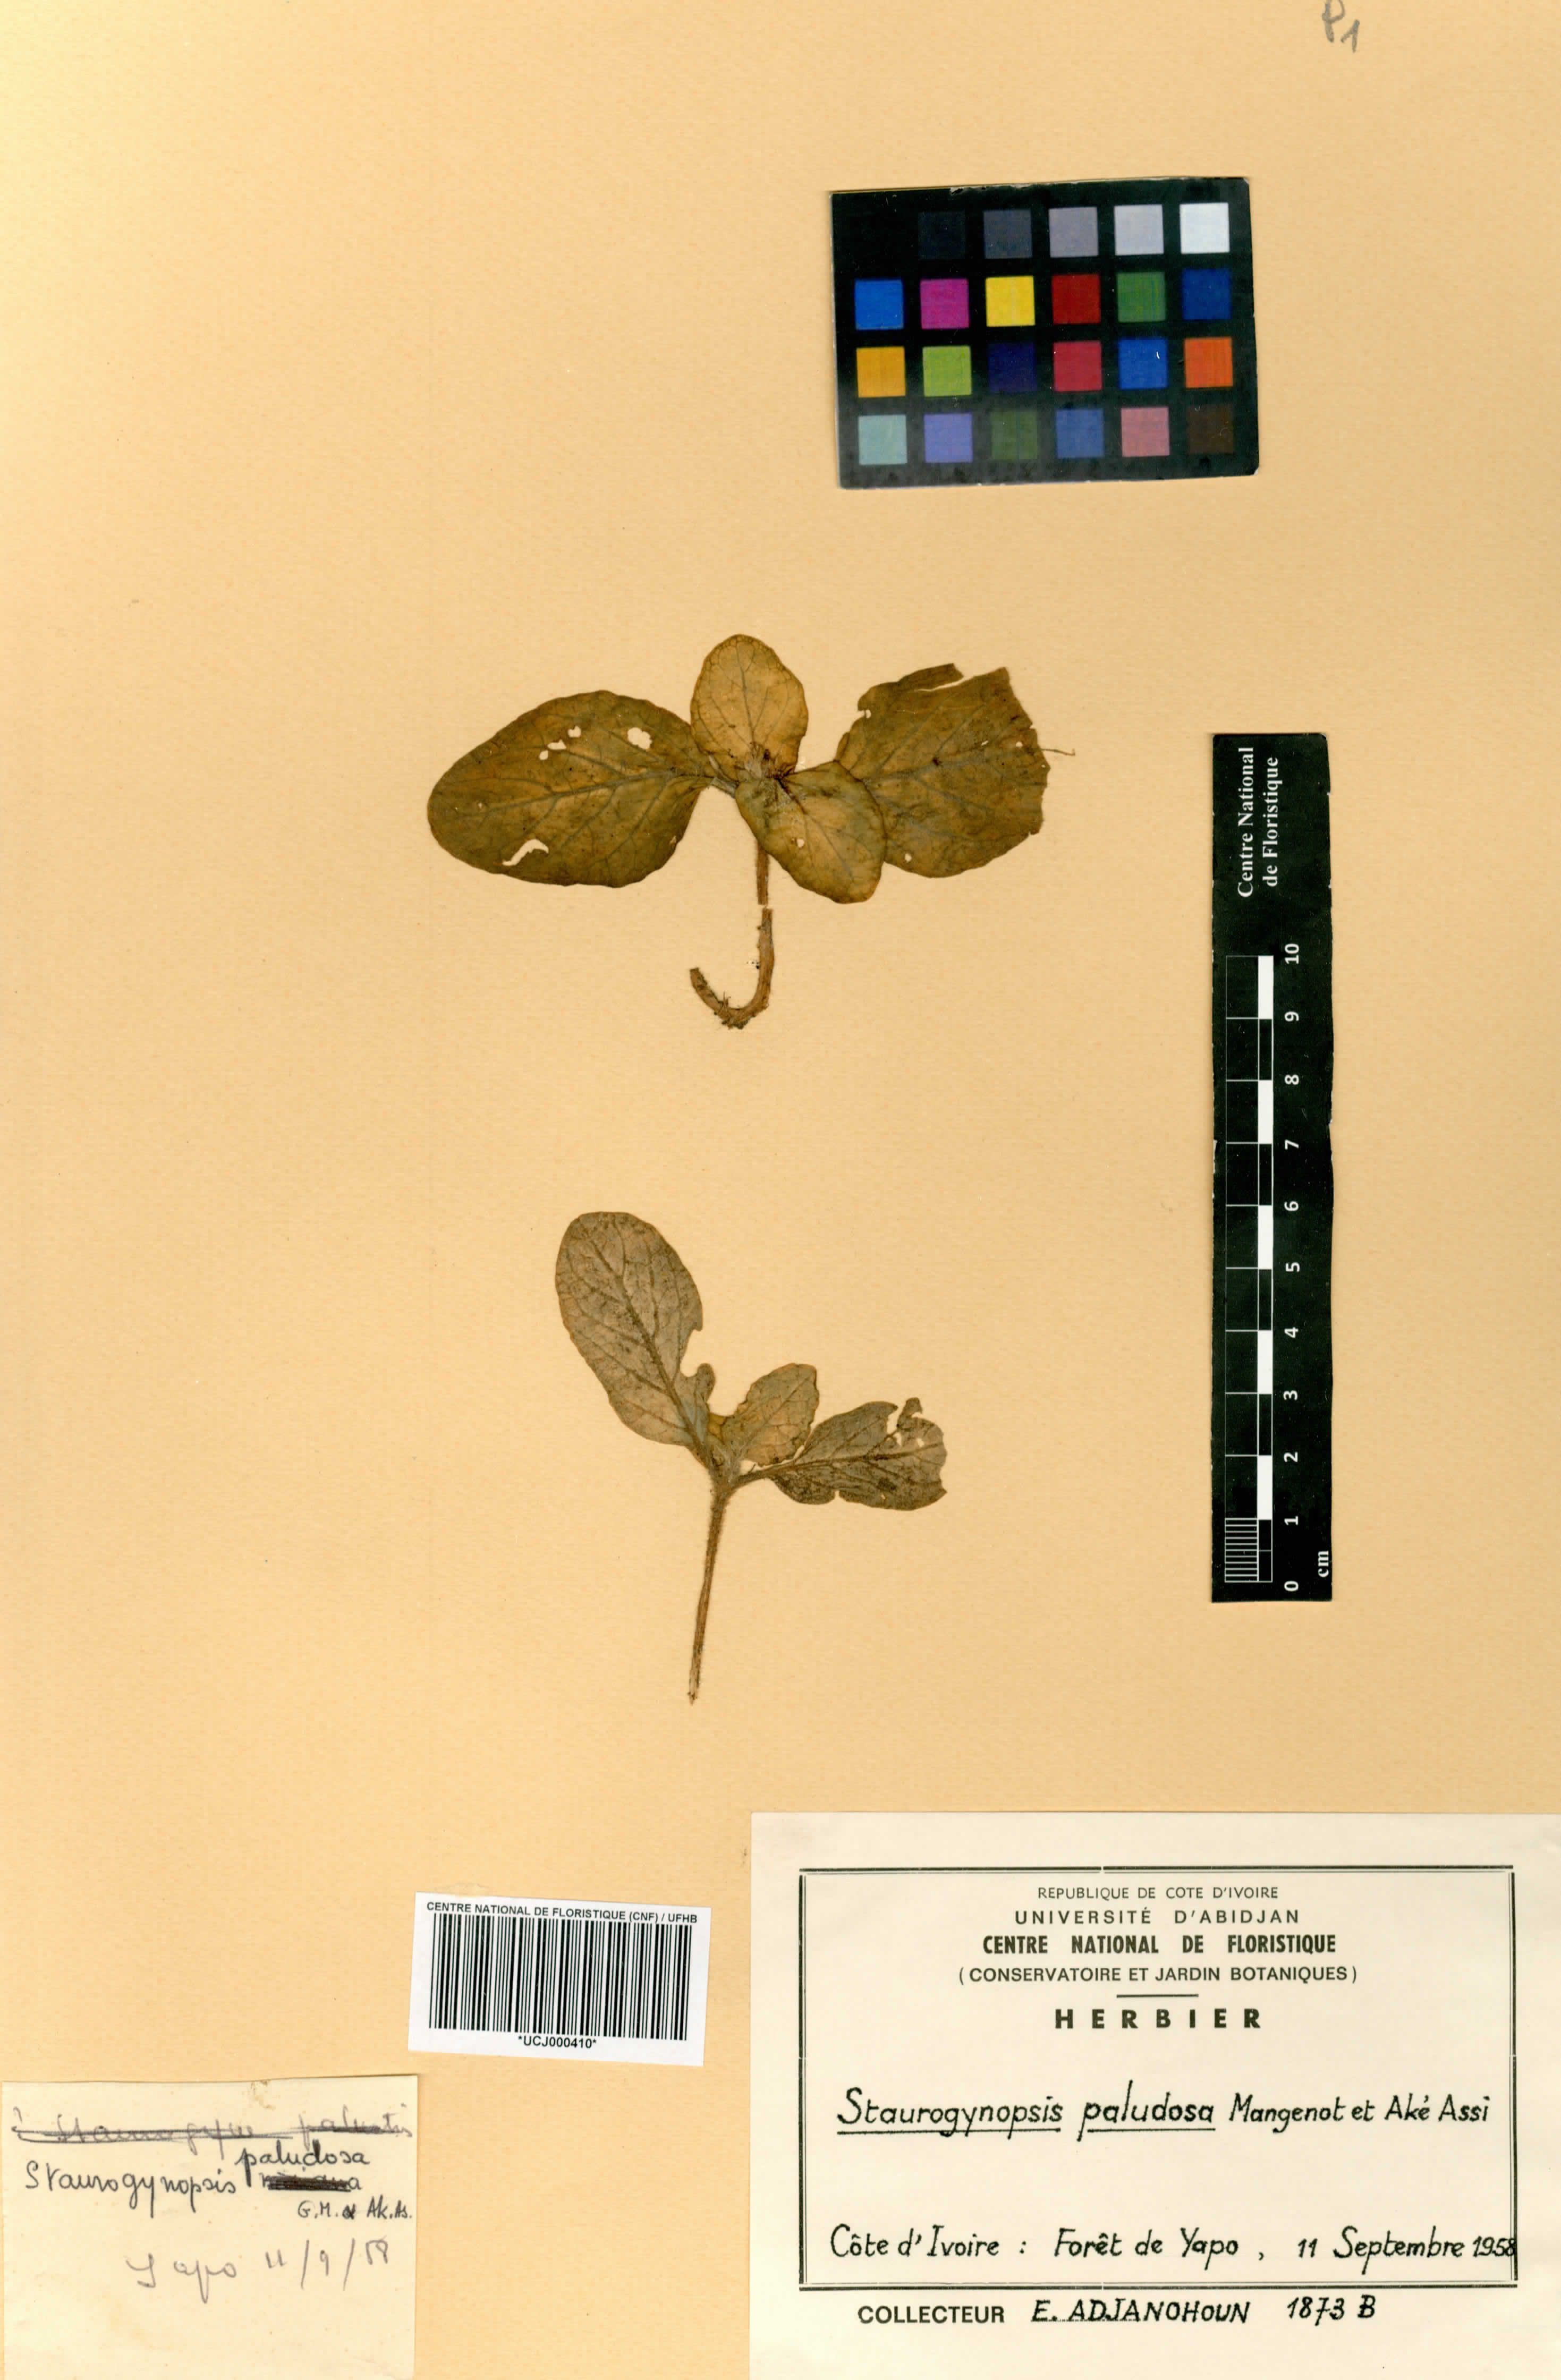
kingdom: Plantae
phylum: Tracheophyta
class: Magnoliopsida
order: Lamiales
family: Acanthaceae
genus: Staurogyne
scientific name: Staurogyne capitata
